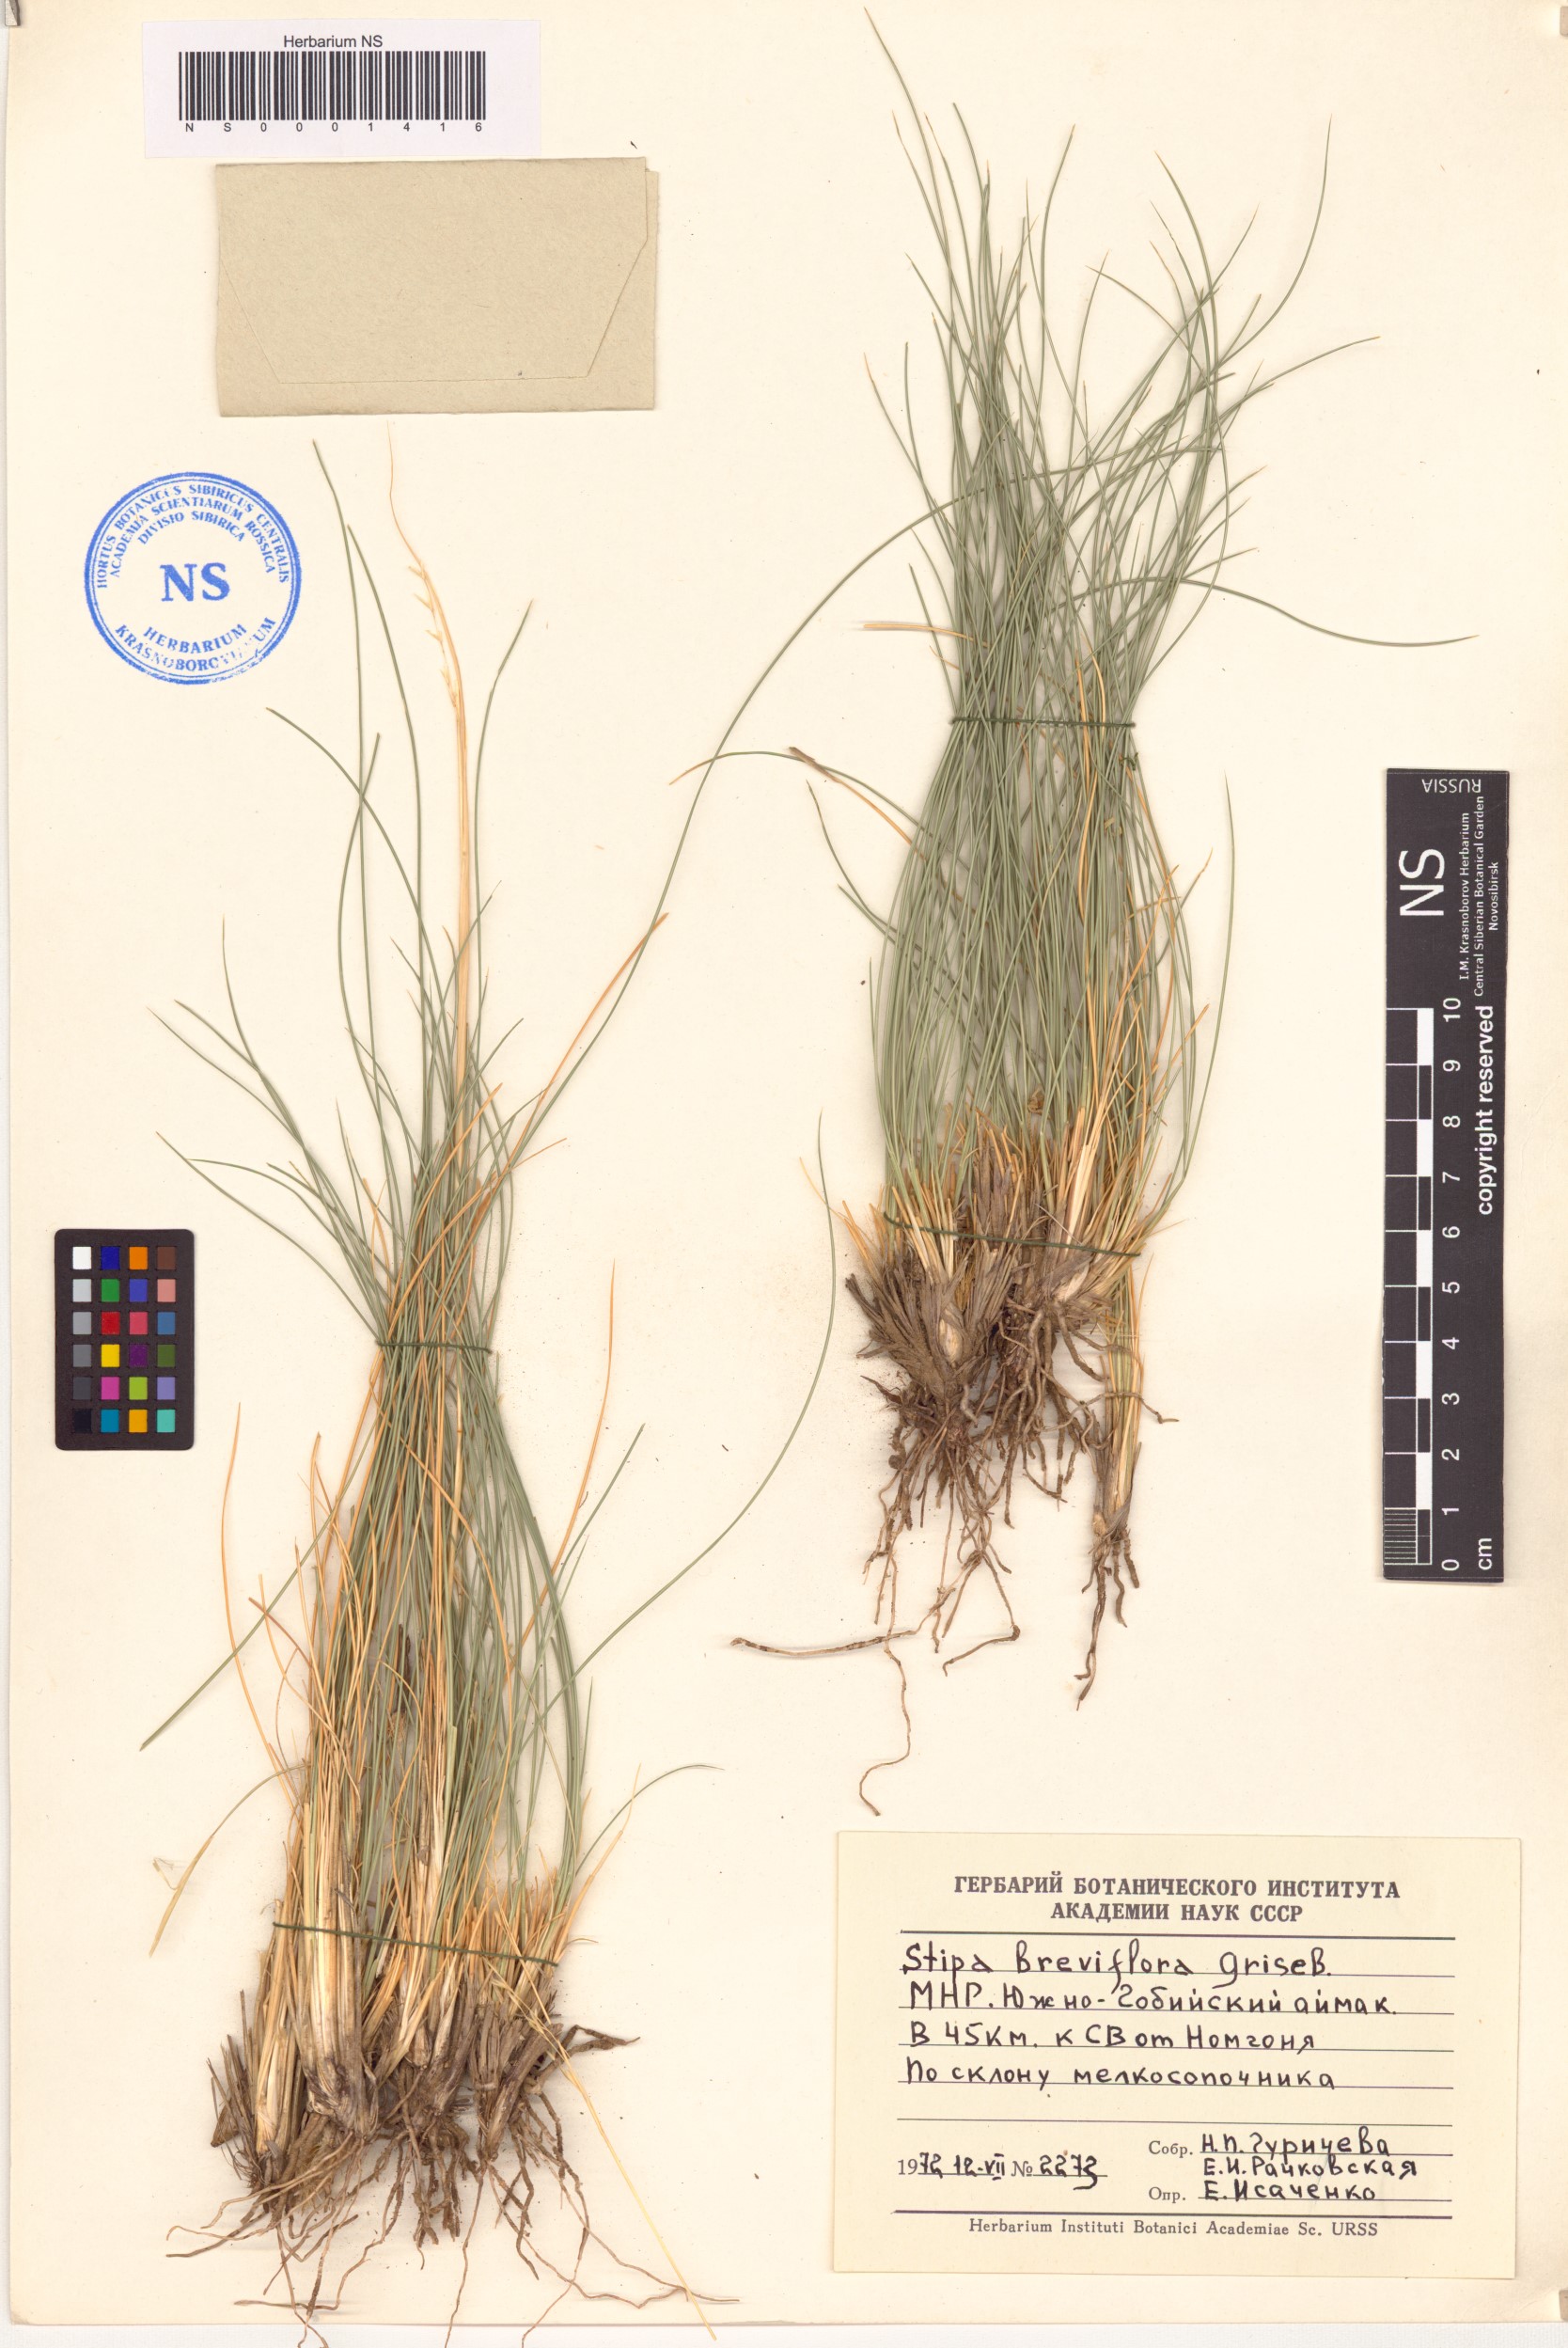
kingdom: Plantae
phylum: Tracheophyta
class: Liliopsida
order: Poales
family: Poaceae
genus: Stipa
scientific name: Stipa breviflora
